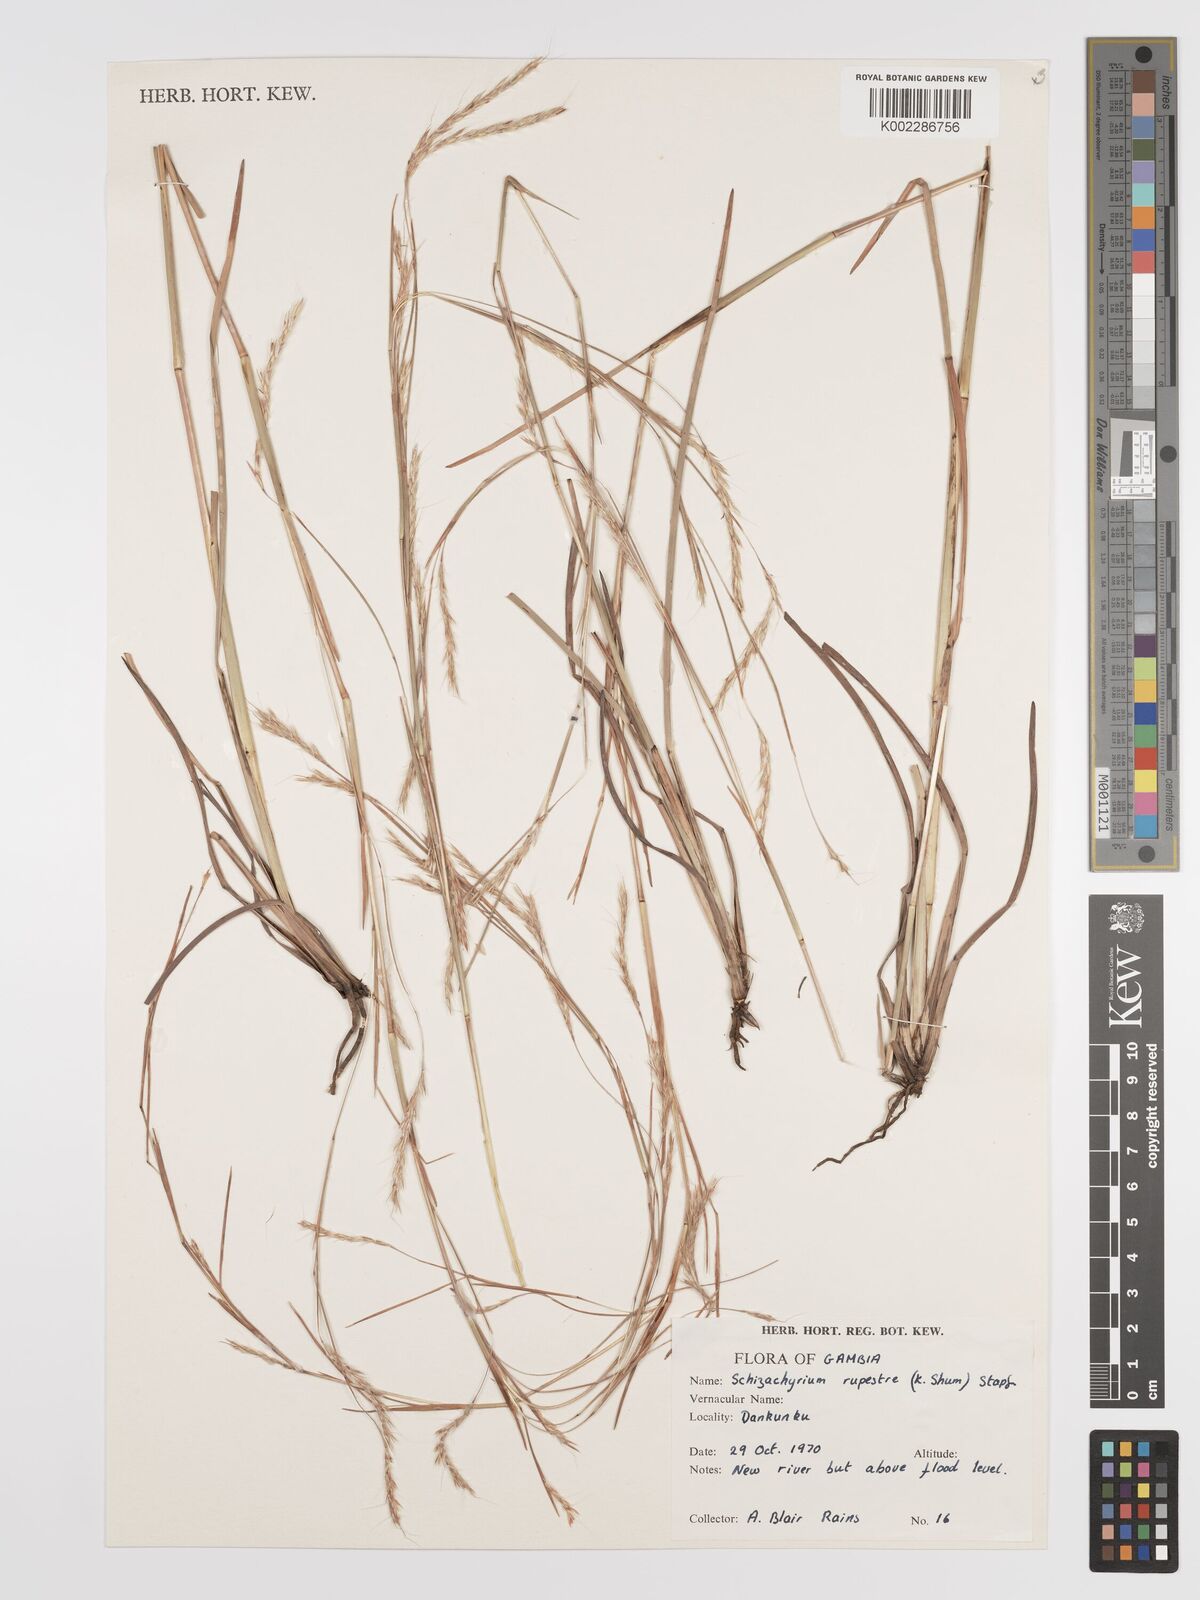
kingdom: Plantae
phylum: Tracheophyta
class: Liliopsida
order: Poales
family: Poaceae
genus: Andropogon
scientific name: Andropogon rupestris
